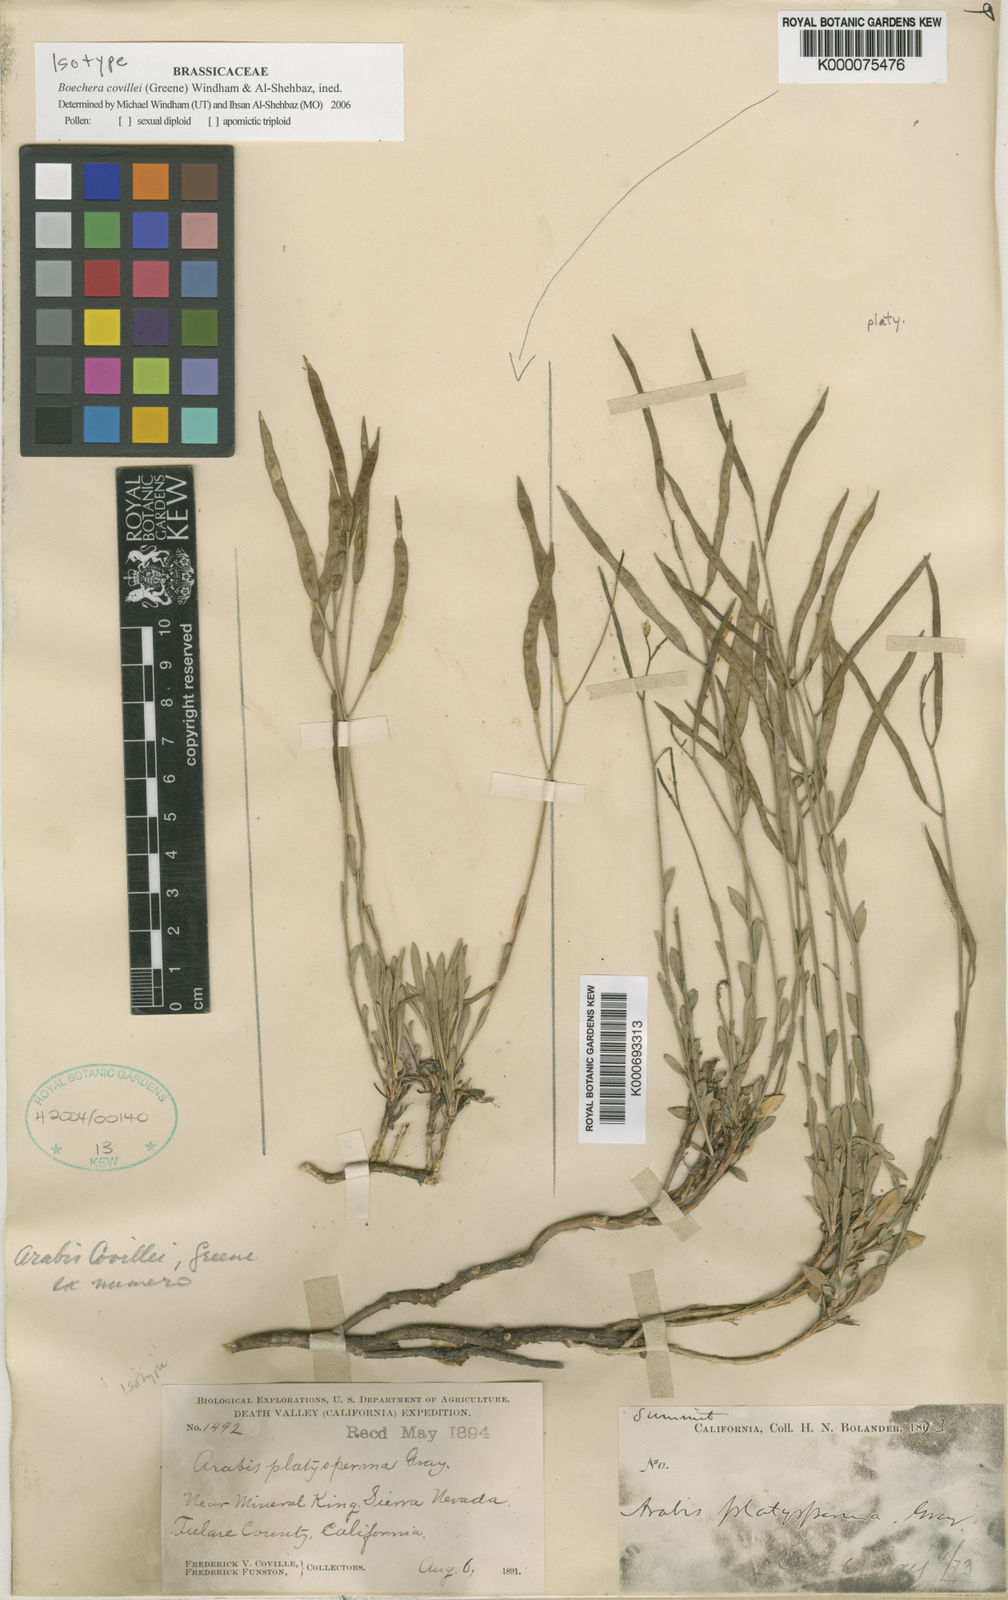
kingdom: Plantae
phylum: Tracheophyta
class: Magnoliopsida
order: Brassicales
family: Brassicaceae
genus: Boechera
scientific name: Boechera covillei
